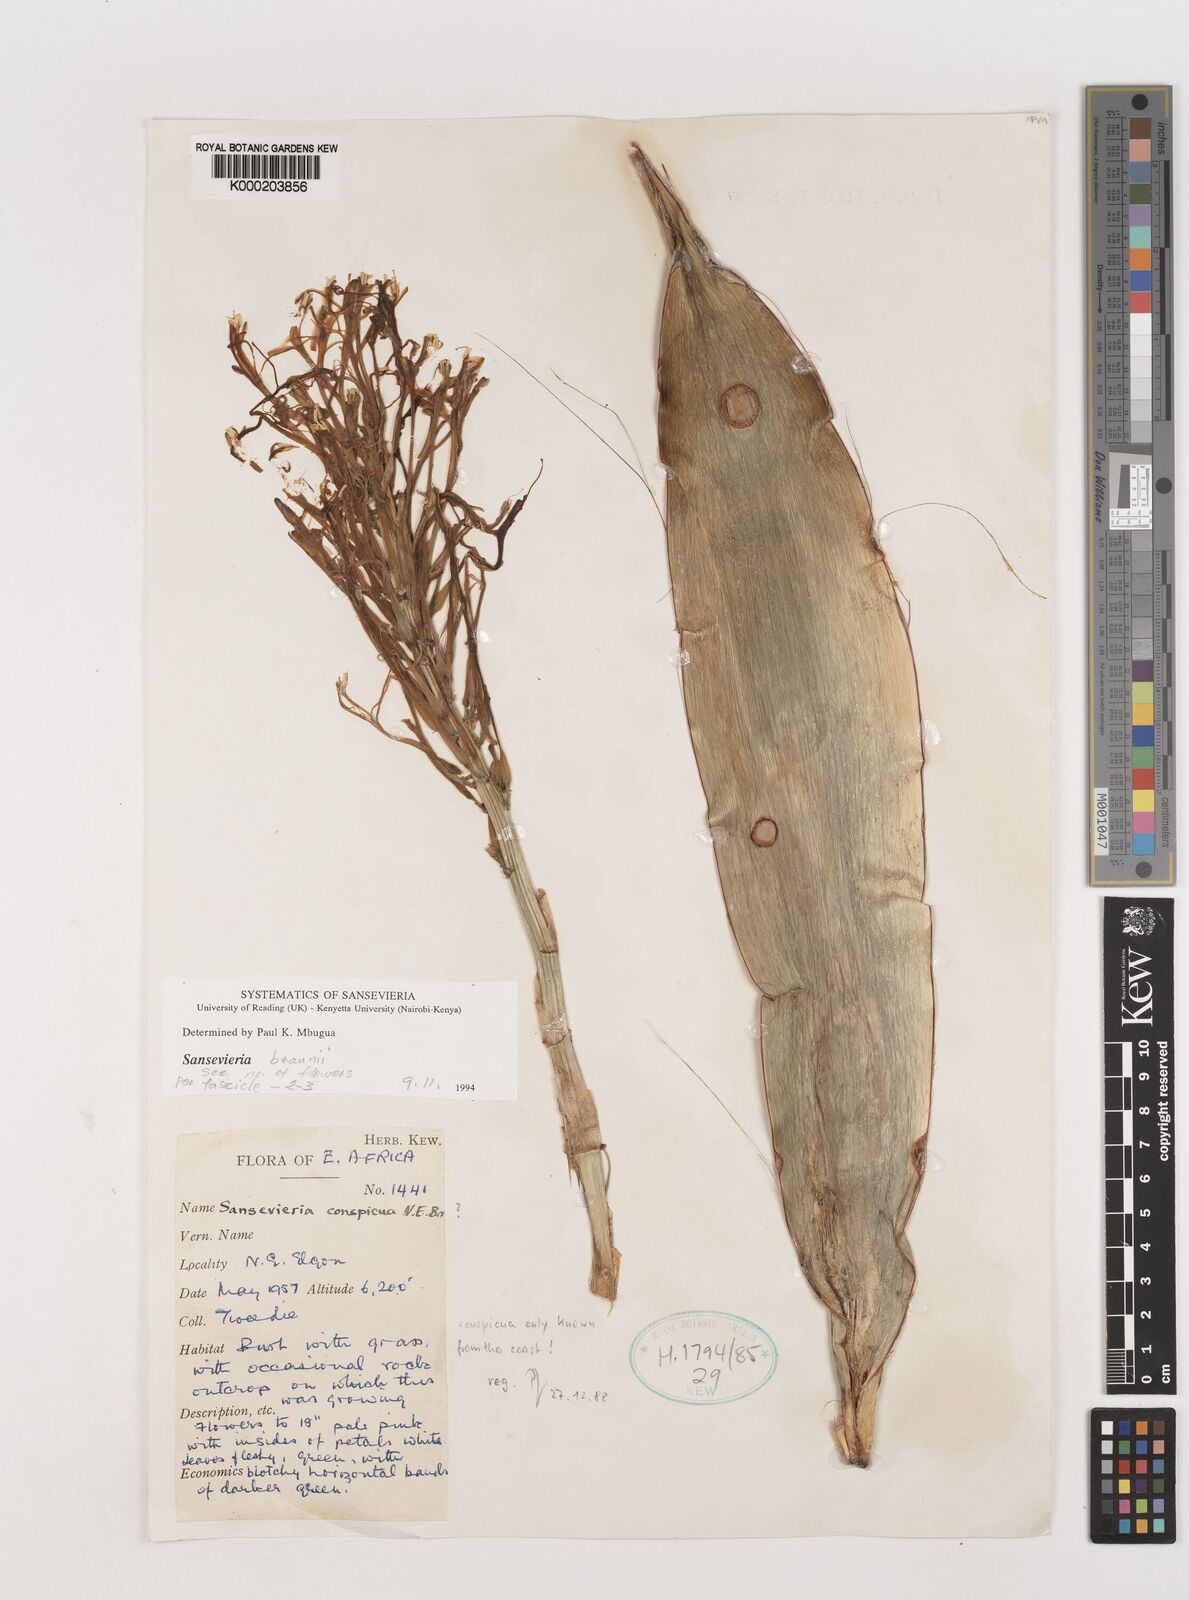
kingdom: Plantae
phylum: Tracheophyta
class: Liliopsida
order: Asparagales
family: Asparagaceae
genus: Dracaena
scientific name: Dracaena conspicua
